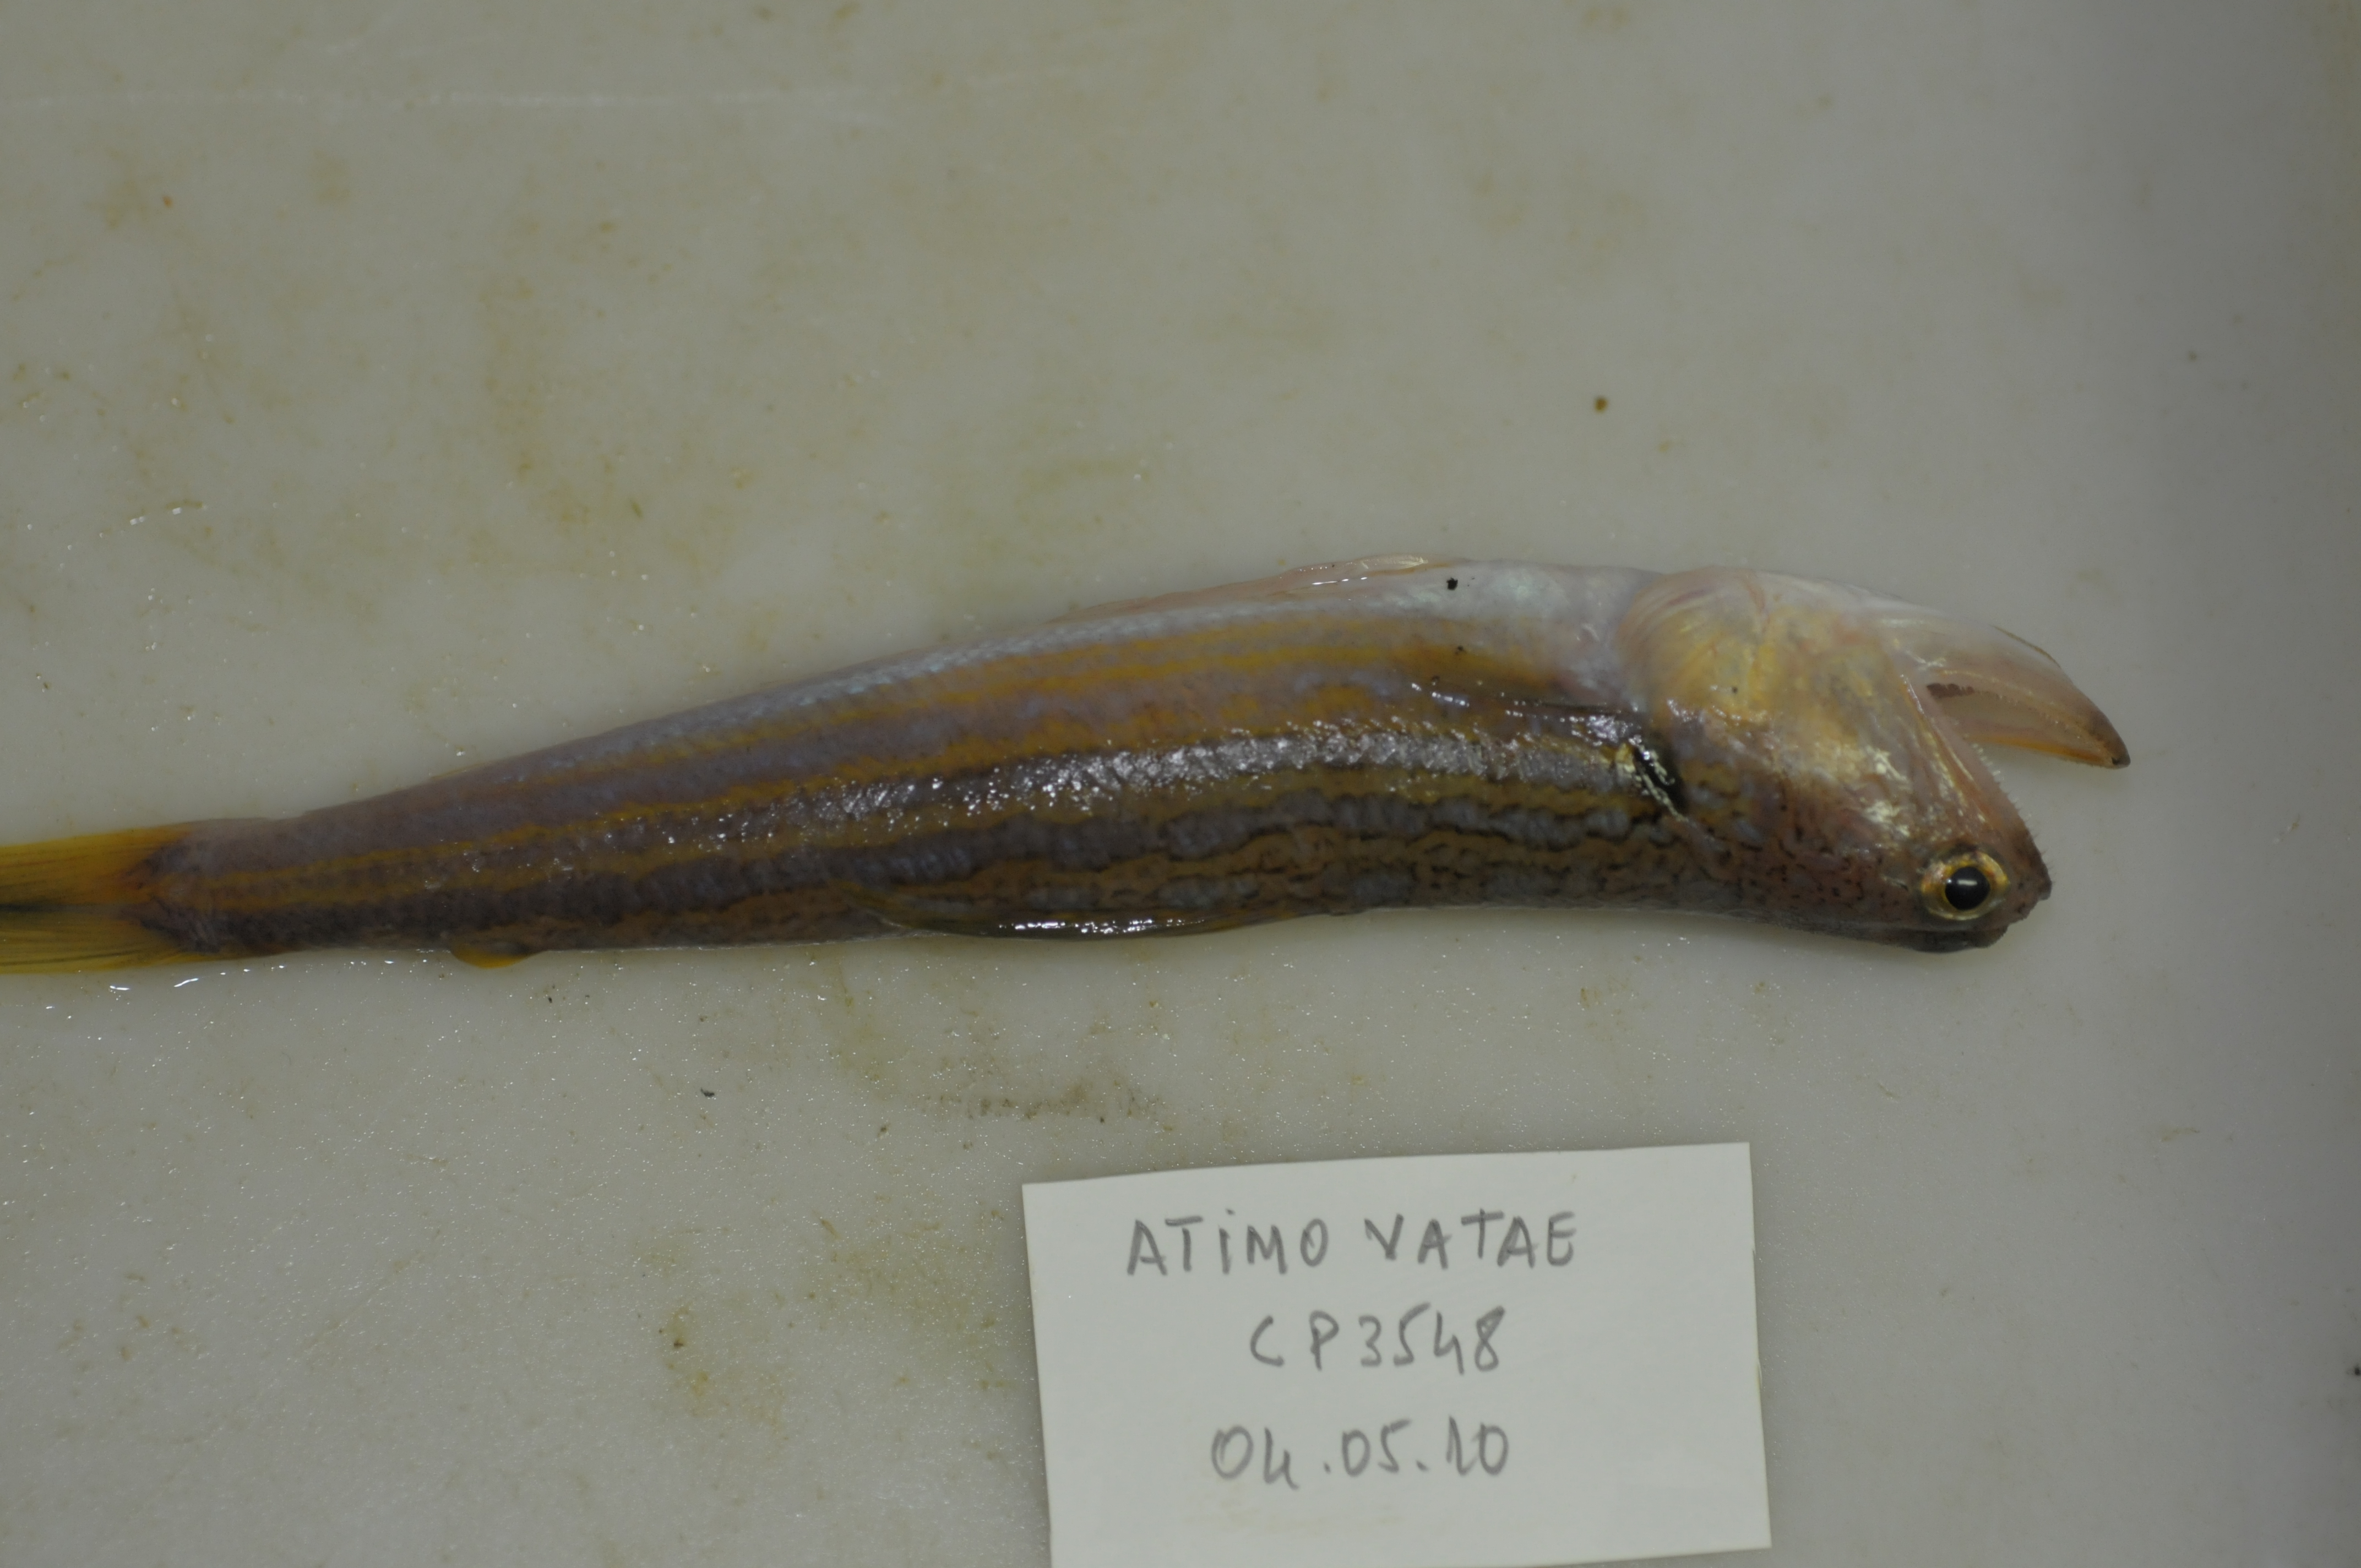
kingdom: Animalia
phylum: Chordata
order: Aulopiformes
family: Synodontidae
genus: Synodus
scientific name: Synodus myops
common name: Snakefish
